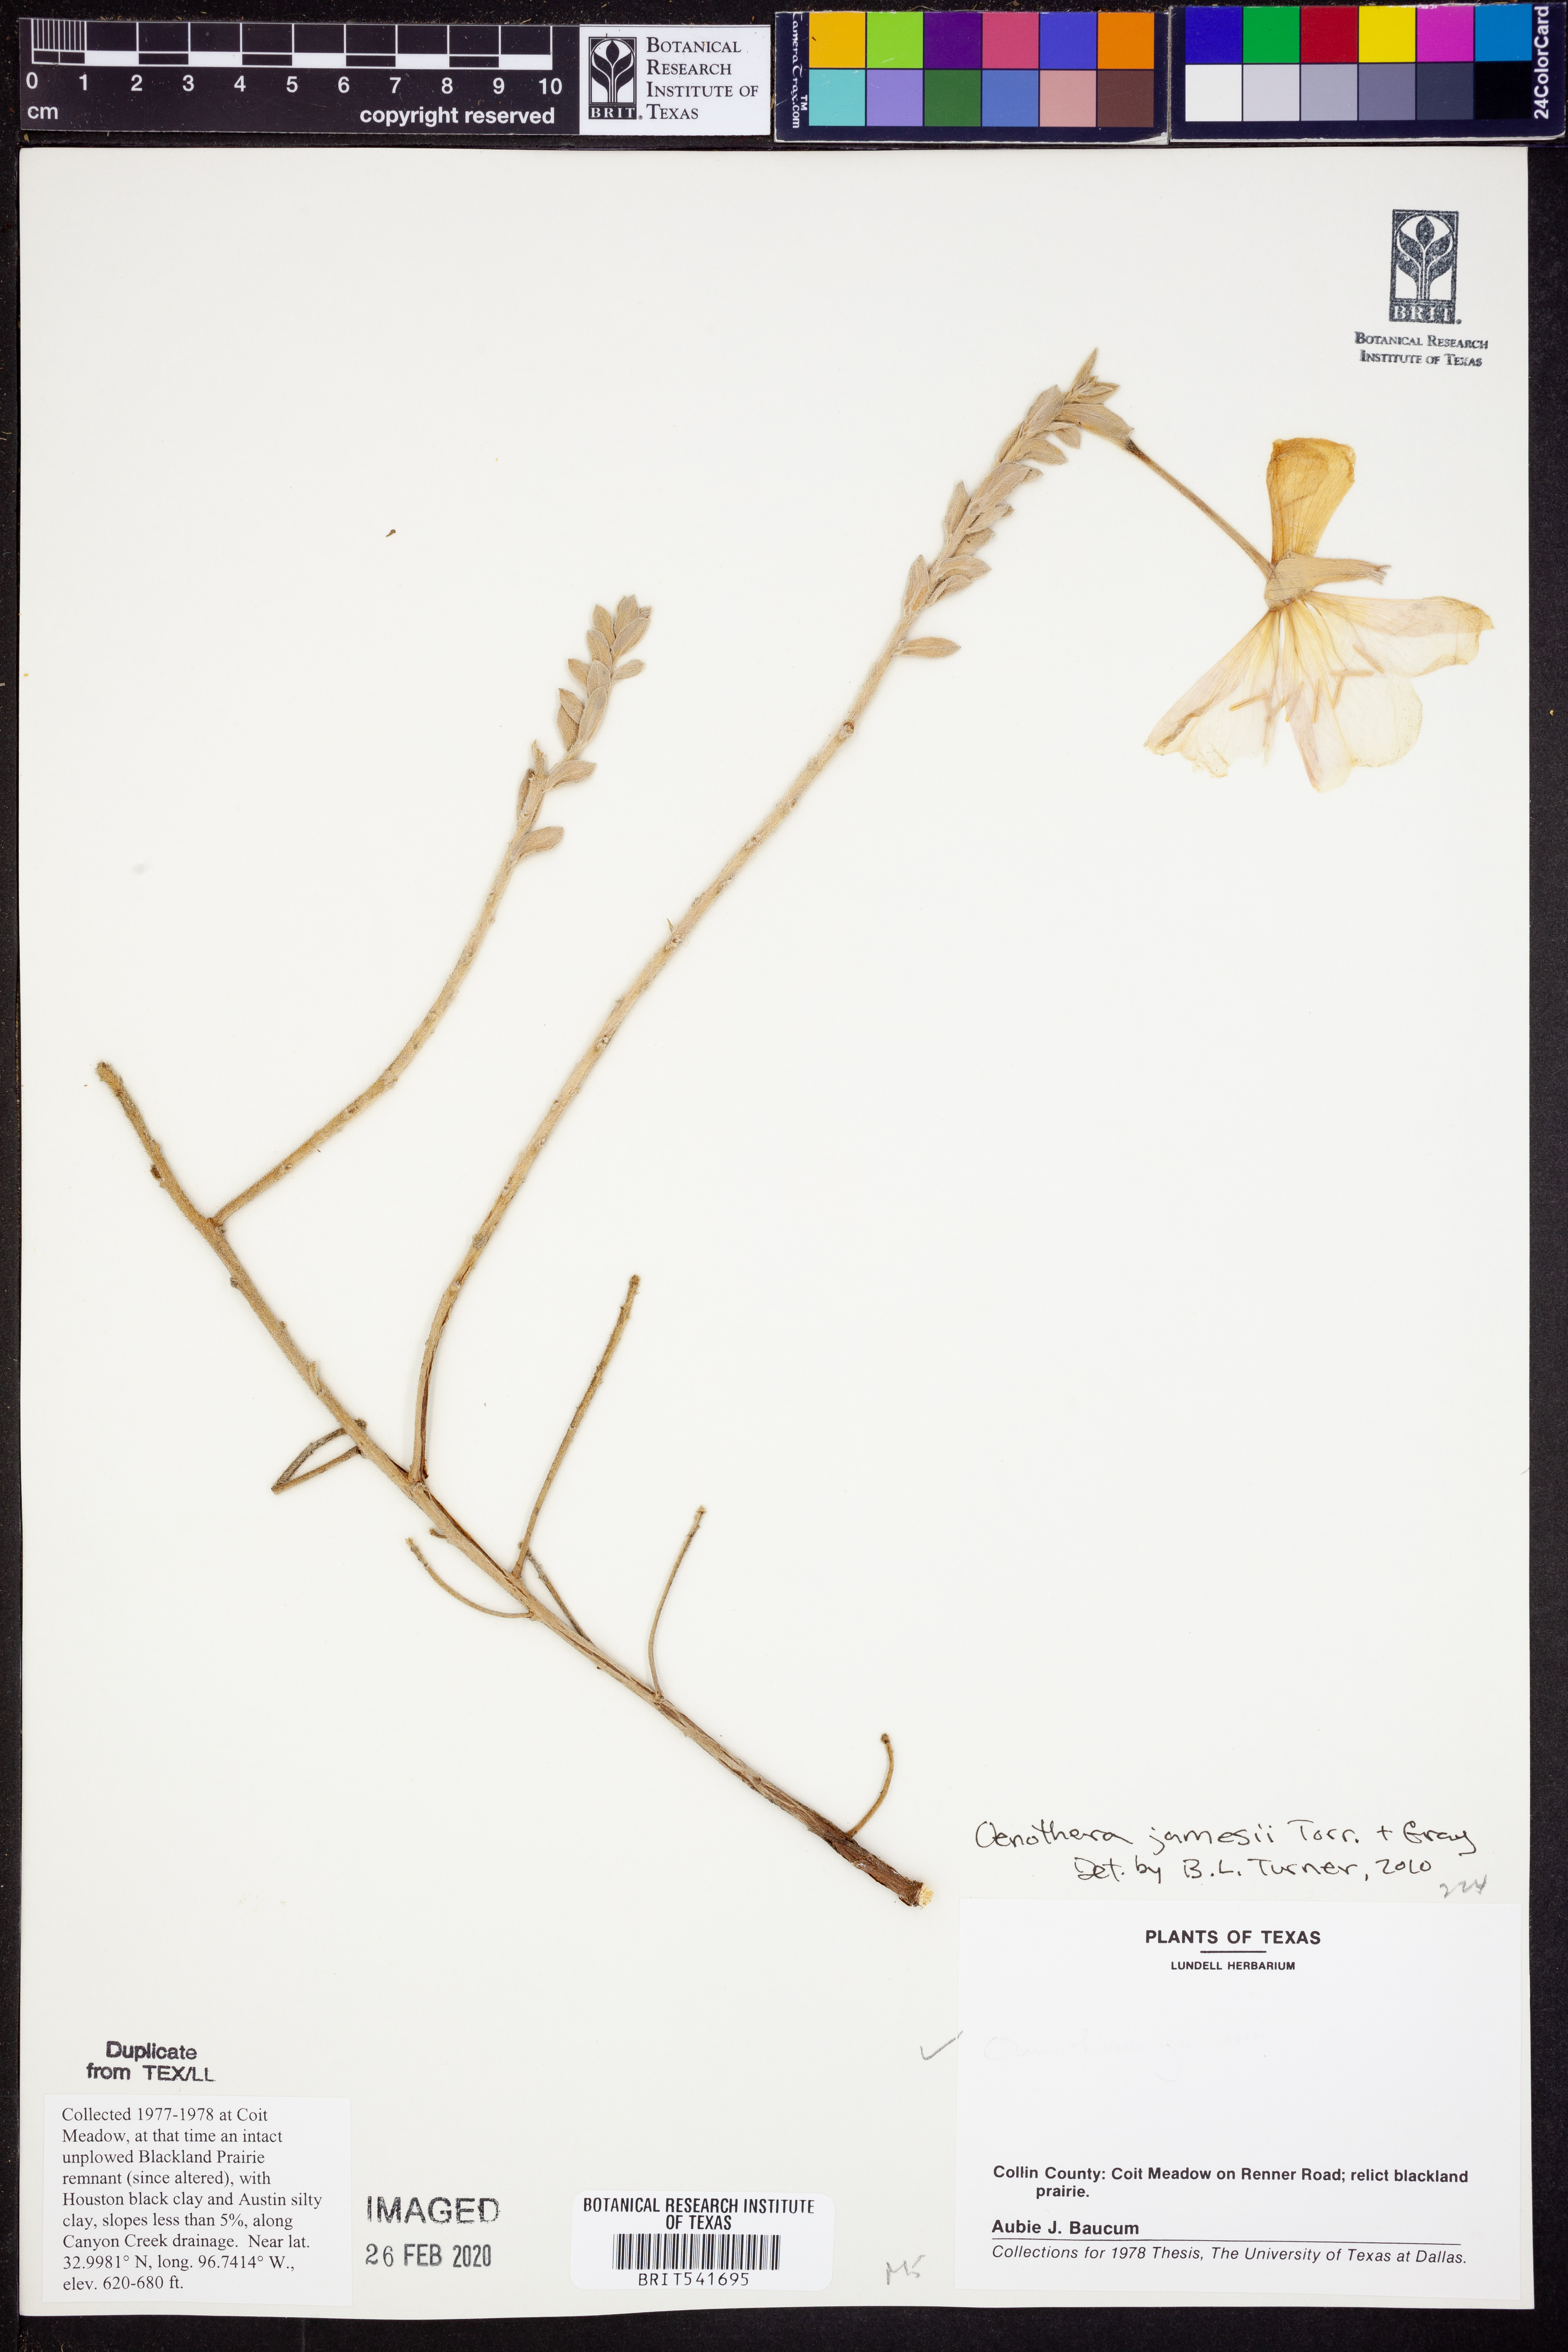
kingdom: Plantae
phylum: Tracheophyta
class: Magnoliopsida
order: Myrtales
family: Onagraceae
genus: Oenothera
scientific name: Oenothera jamesii
